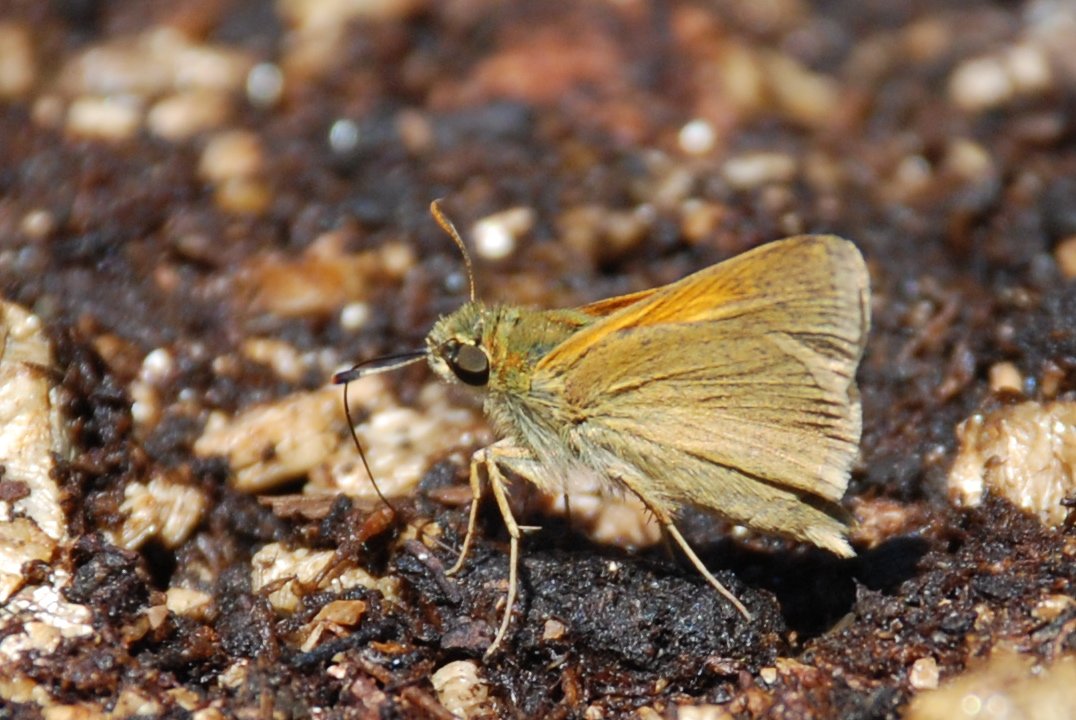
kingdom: Animalia
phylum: Arthropoda
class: Insecta
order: Lepidoptera
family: Hesperiidae
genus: Polites
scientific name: Polites themistocles
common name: Tawny-edged Skipper
